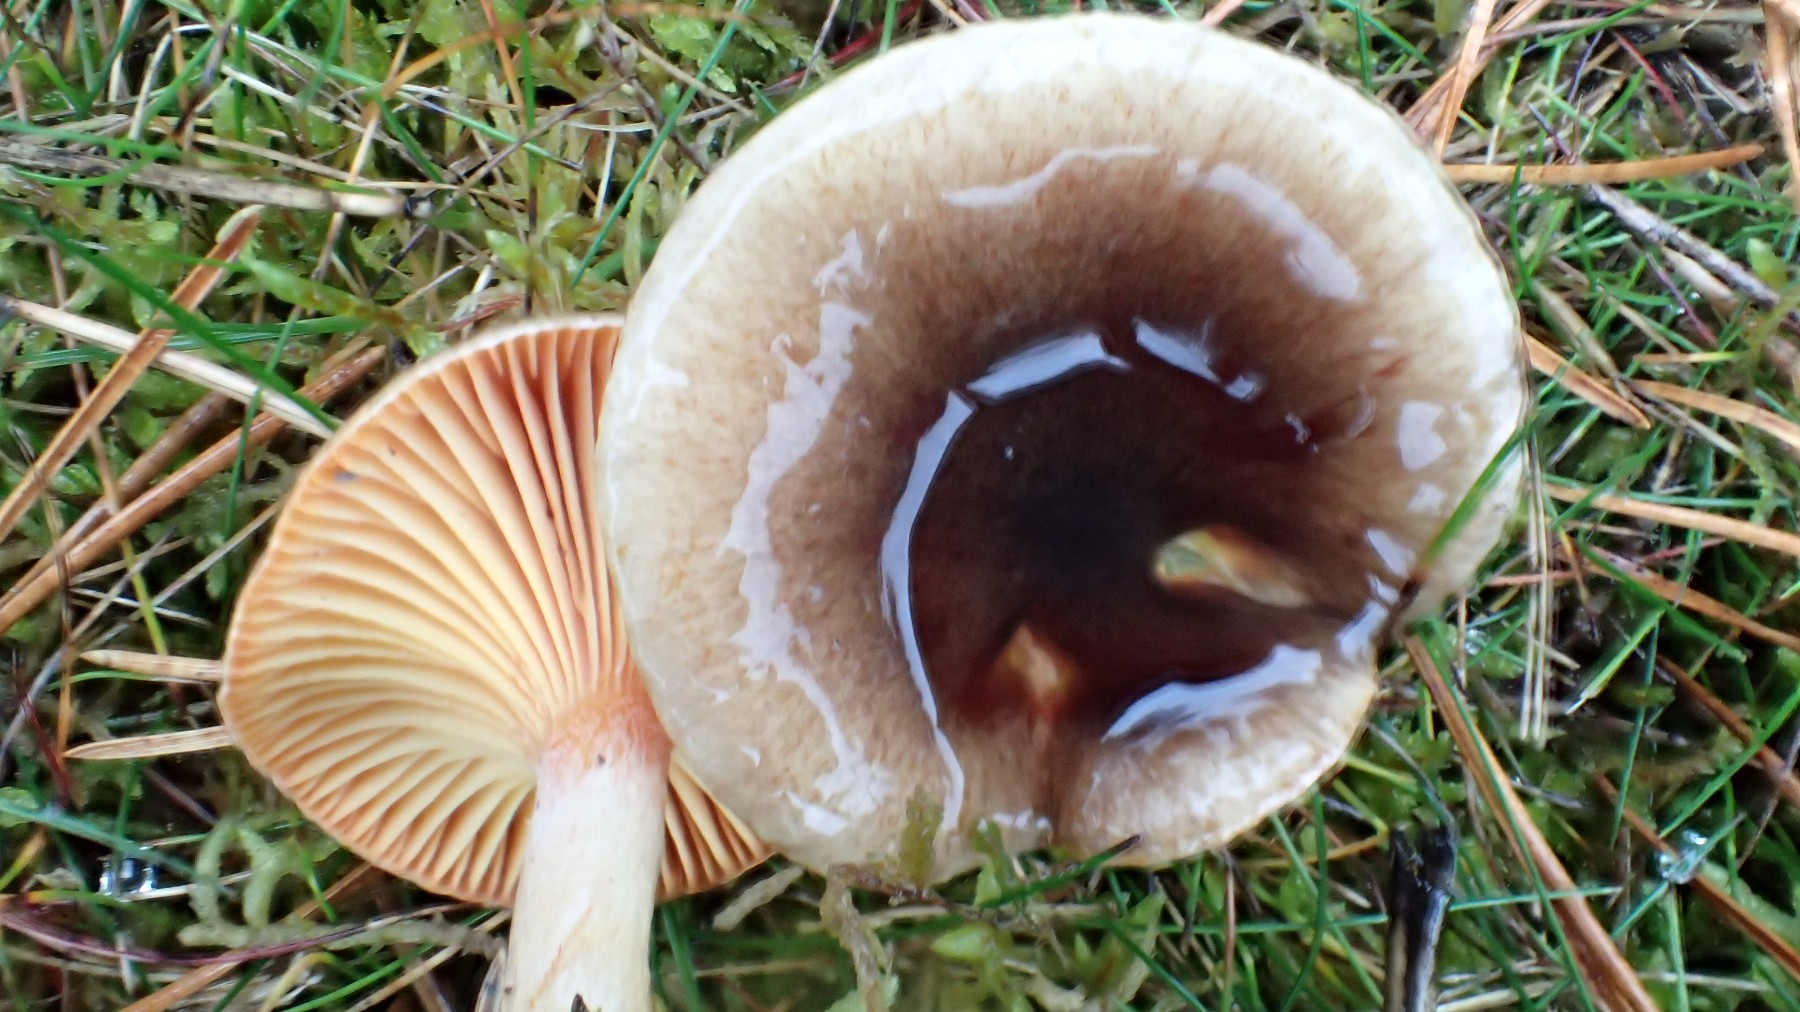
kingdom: Fungi
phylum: Basidiomycota
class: Agaricomycetes
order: Agaricales
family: Hygrophoraceae
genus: Hygrophorus
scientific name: Hygrophorus hypothejus
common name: frost-sneglehat
